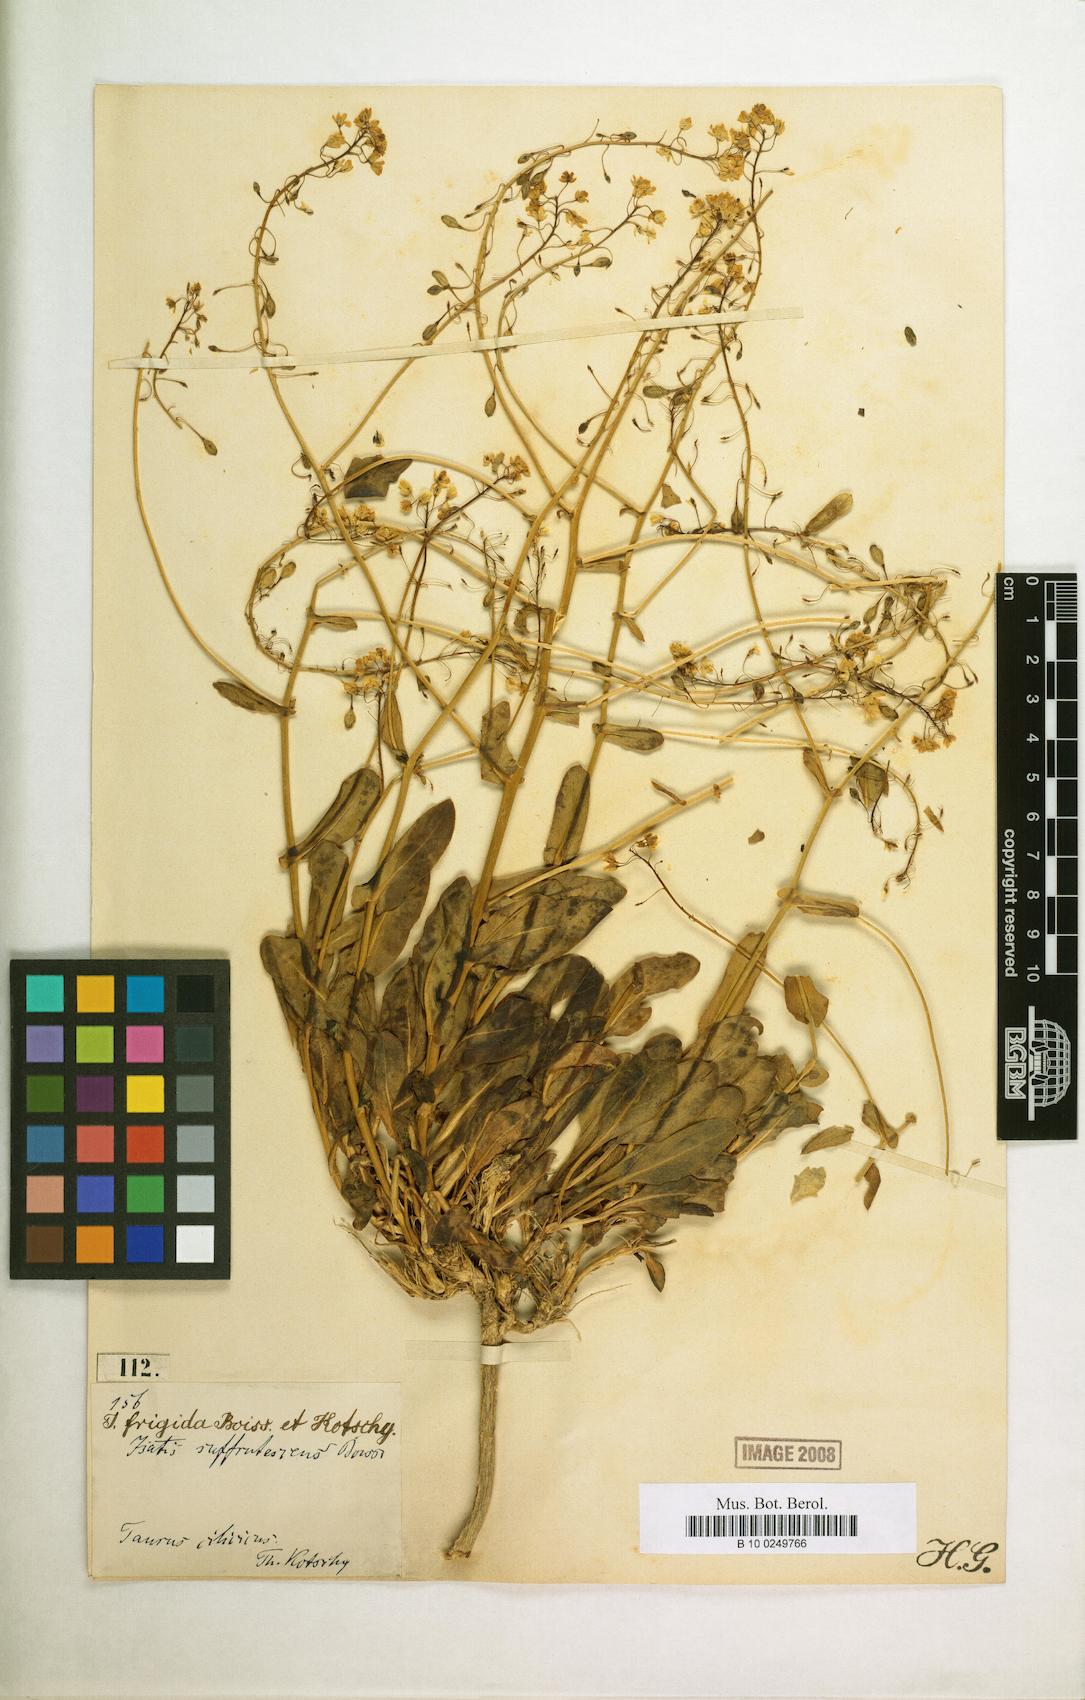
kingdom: Plantae
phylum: Tracheophyta
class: Magnoliopsida
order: Brassicales
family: Brassicaceae
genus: Isatis
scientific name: Isatis suffrutescens
